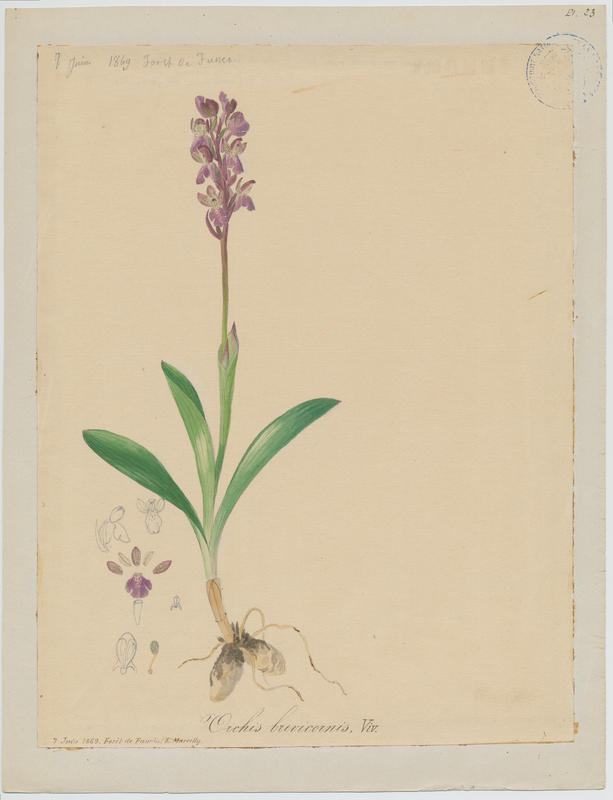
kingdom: Plantae
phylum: Tracheophyta
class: Liliopsida
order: Asparagales
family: Orchidaceae
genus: Orchis
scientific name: Orchis spitzelii
